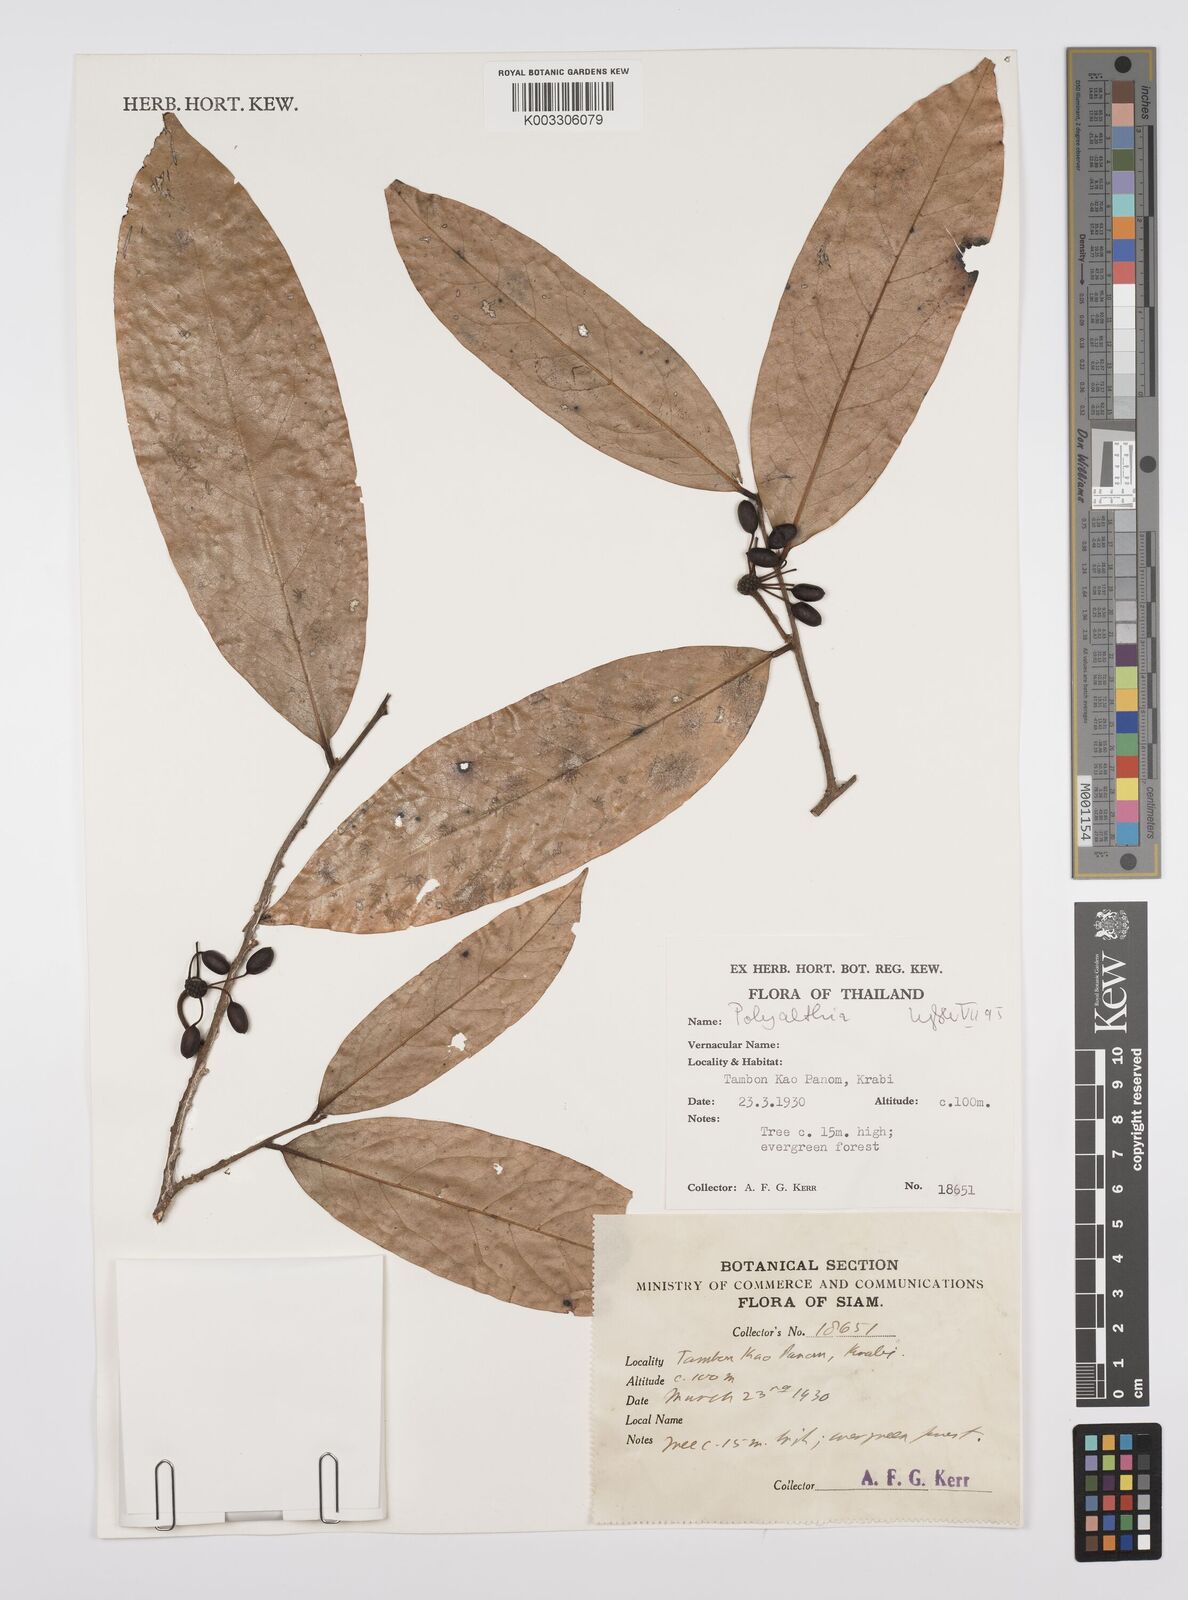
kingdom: Plantae
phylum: Tracheophyta
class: Magnoliopsida
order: Magnoliales
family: Annonaceae
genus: Huberantha
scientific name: Huberantha
